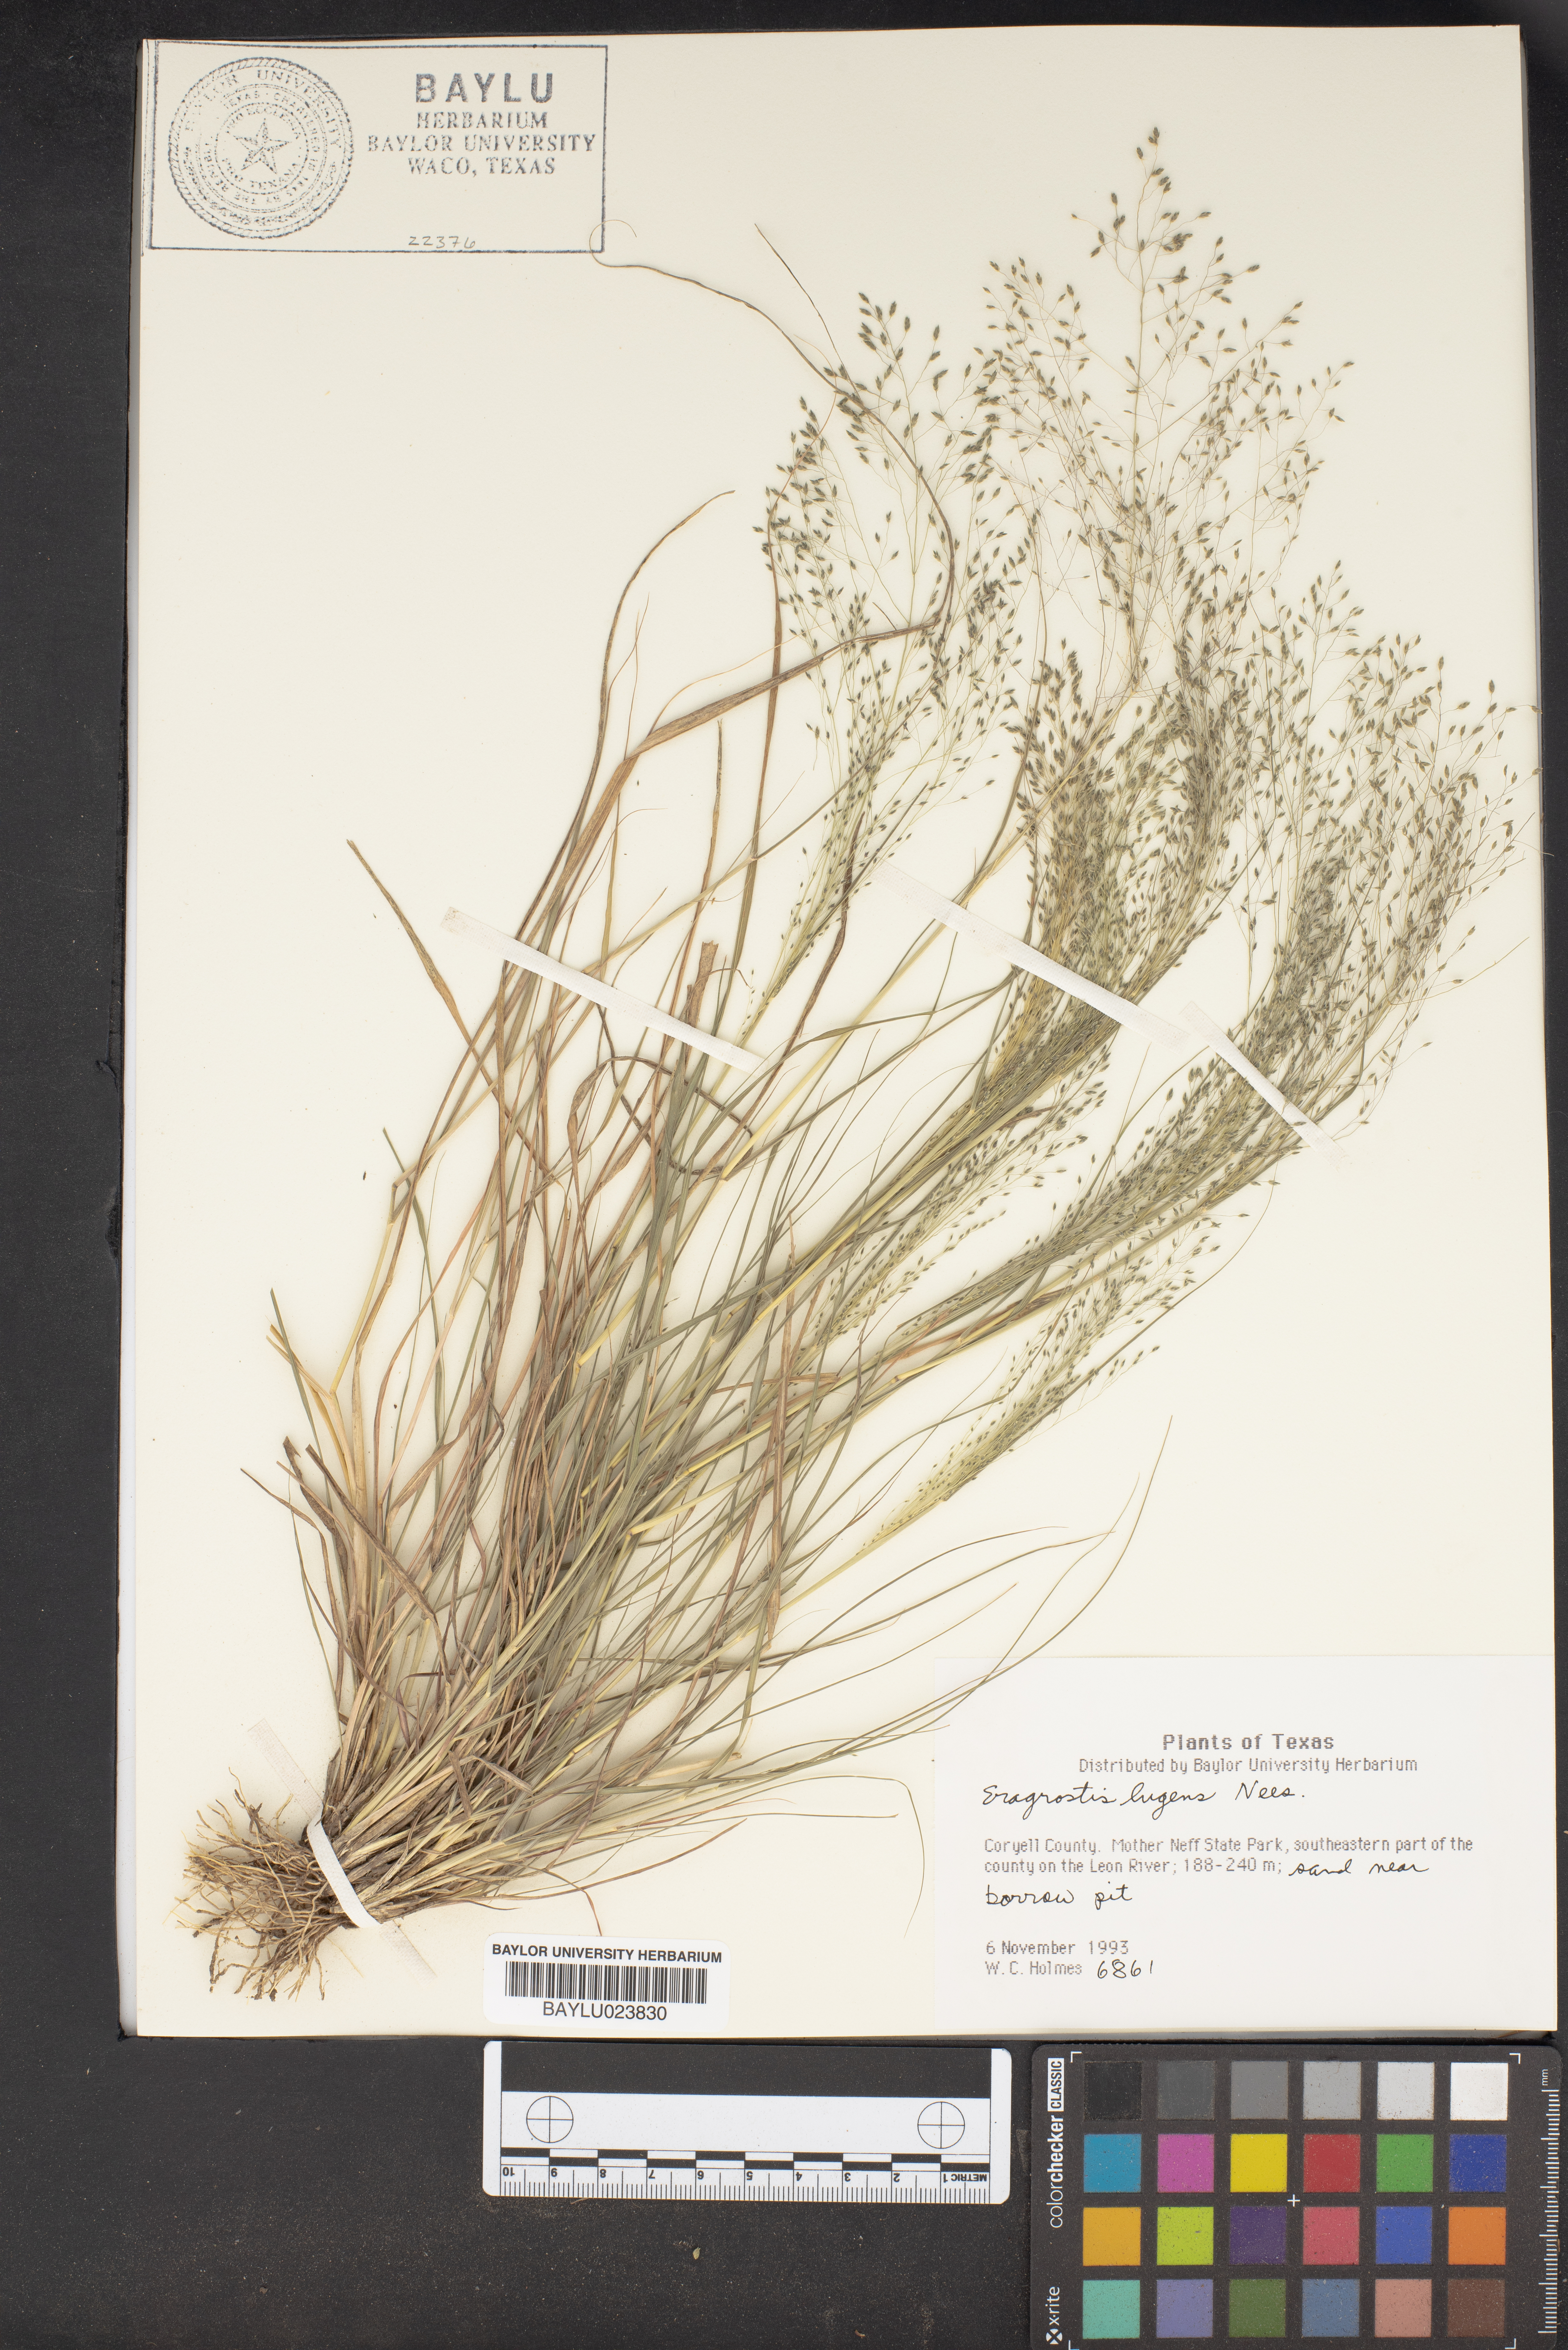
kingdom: Plantae
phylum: Tracheophyta
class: Liliopsida
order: Poales
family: Poaceae
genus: Eragrostis
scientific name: Eragrostis capillaris
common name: Hair-like lovegrass
